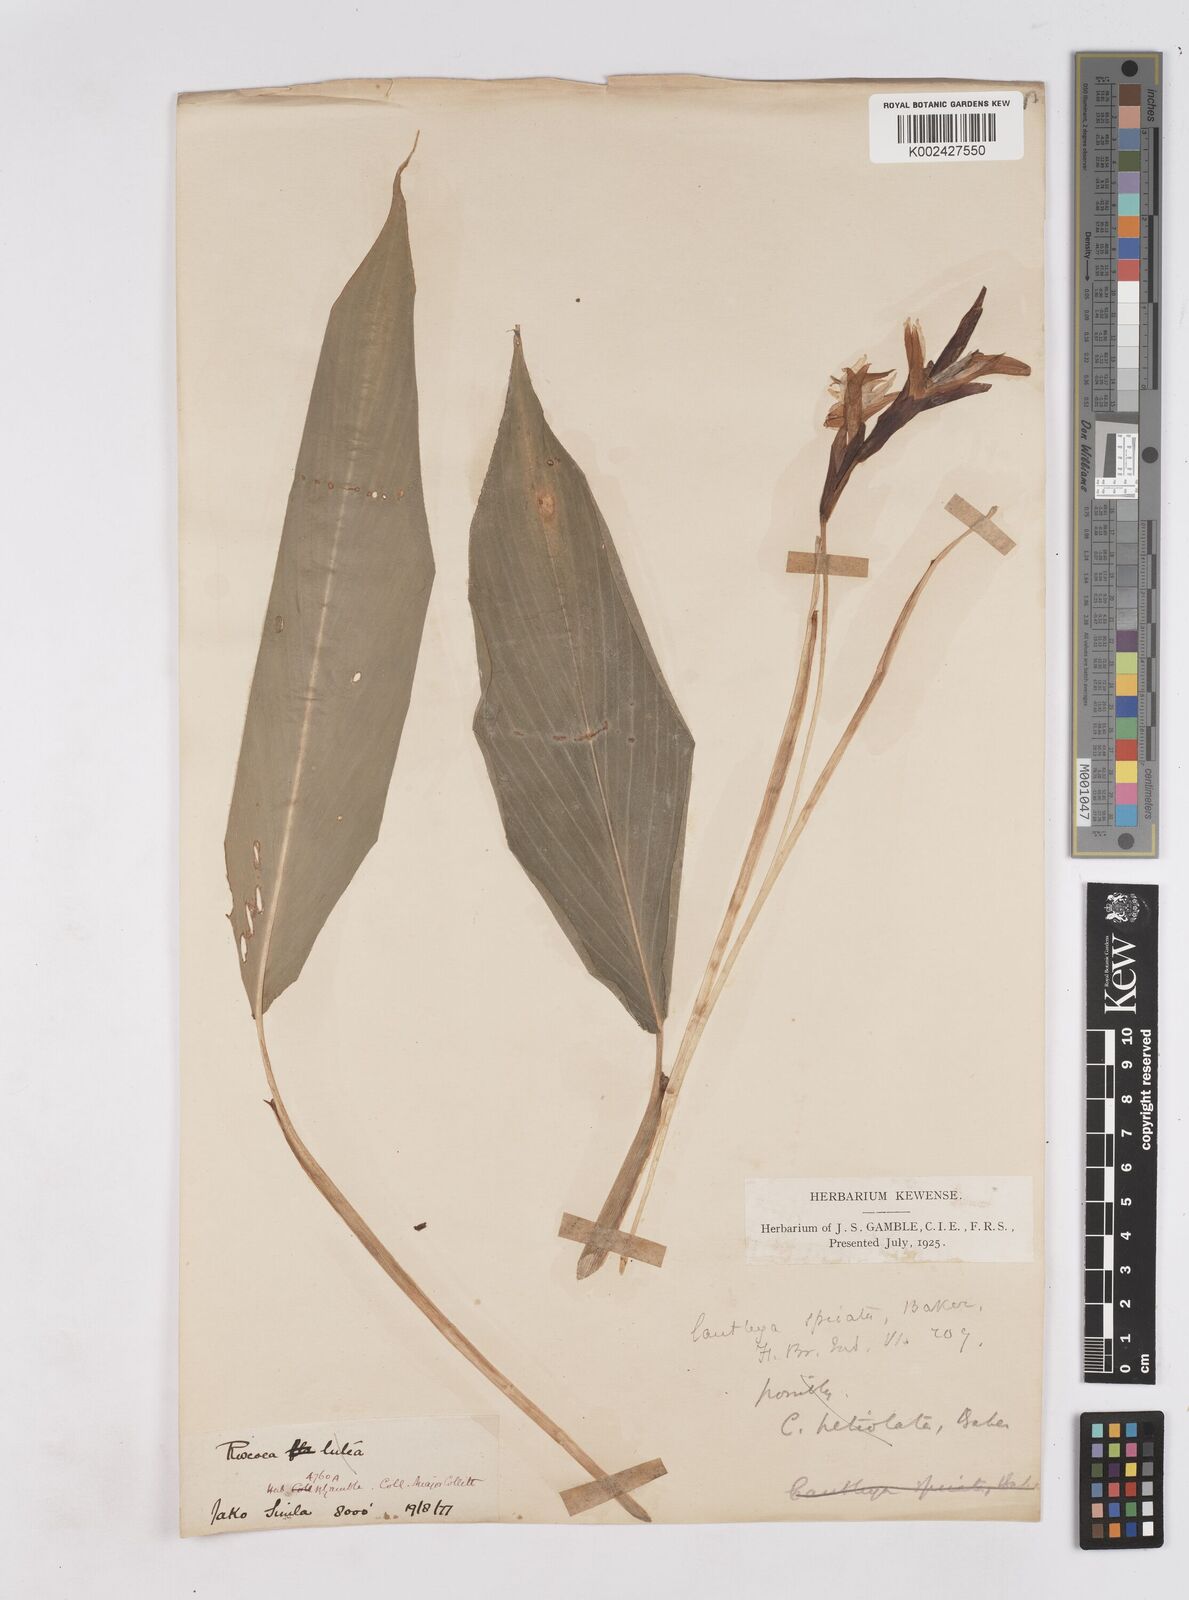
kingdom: Plantae
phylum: Tracheophyta
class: Liliopsida
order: Zingiberales
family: Zingiberaceae
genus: Cautleya
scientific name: Cautleya spicata
